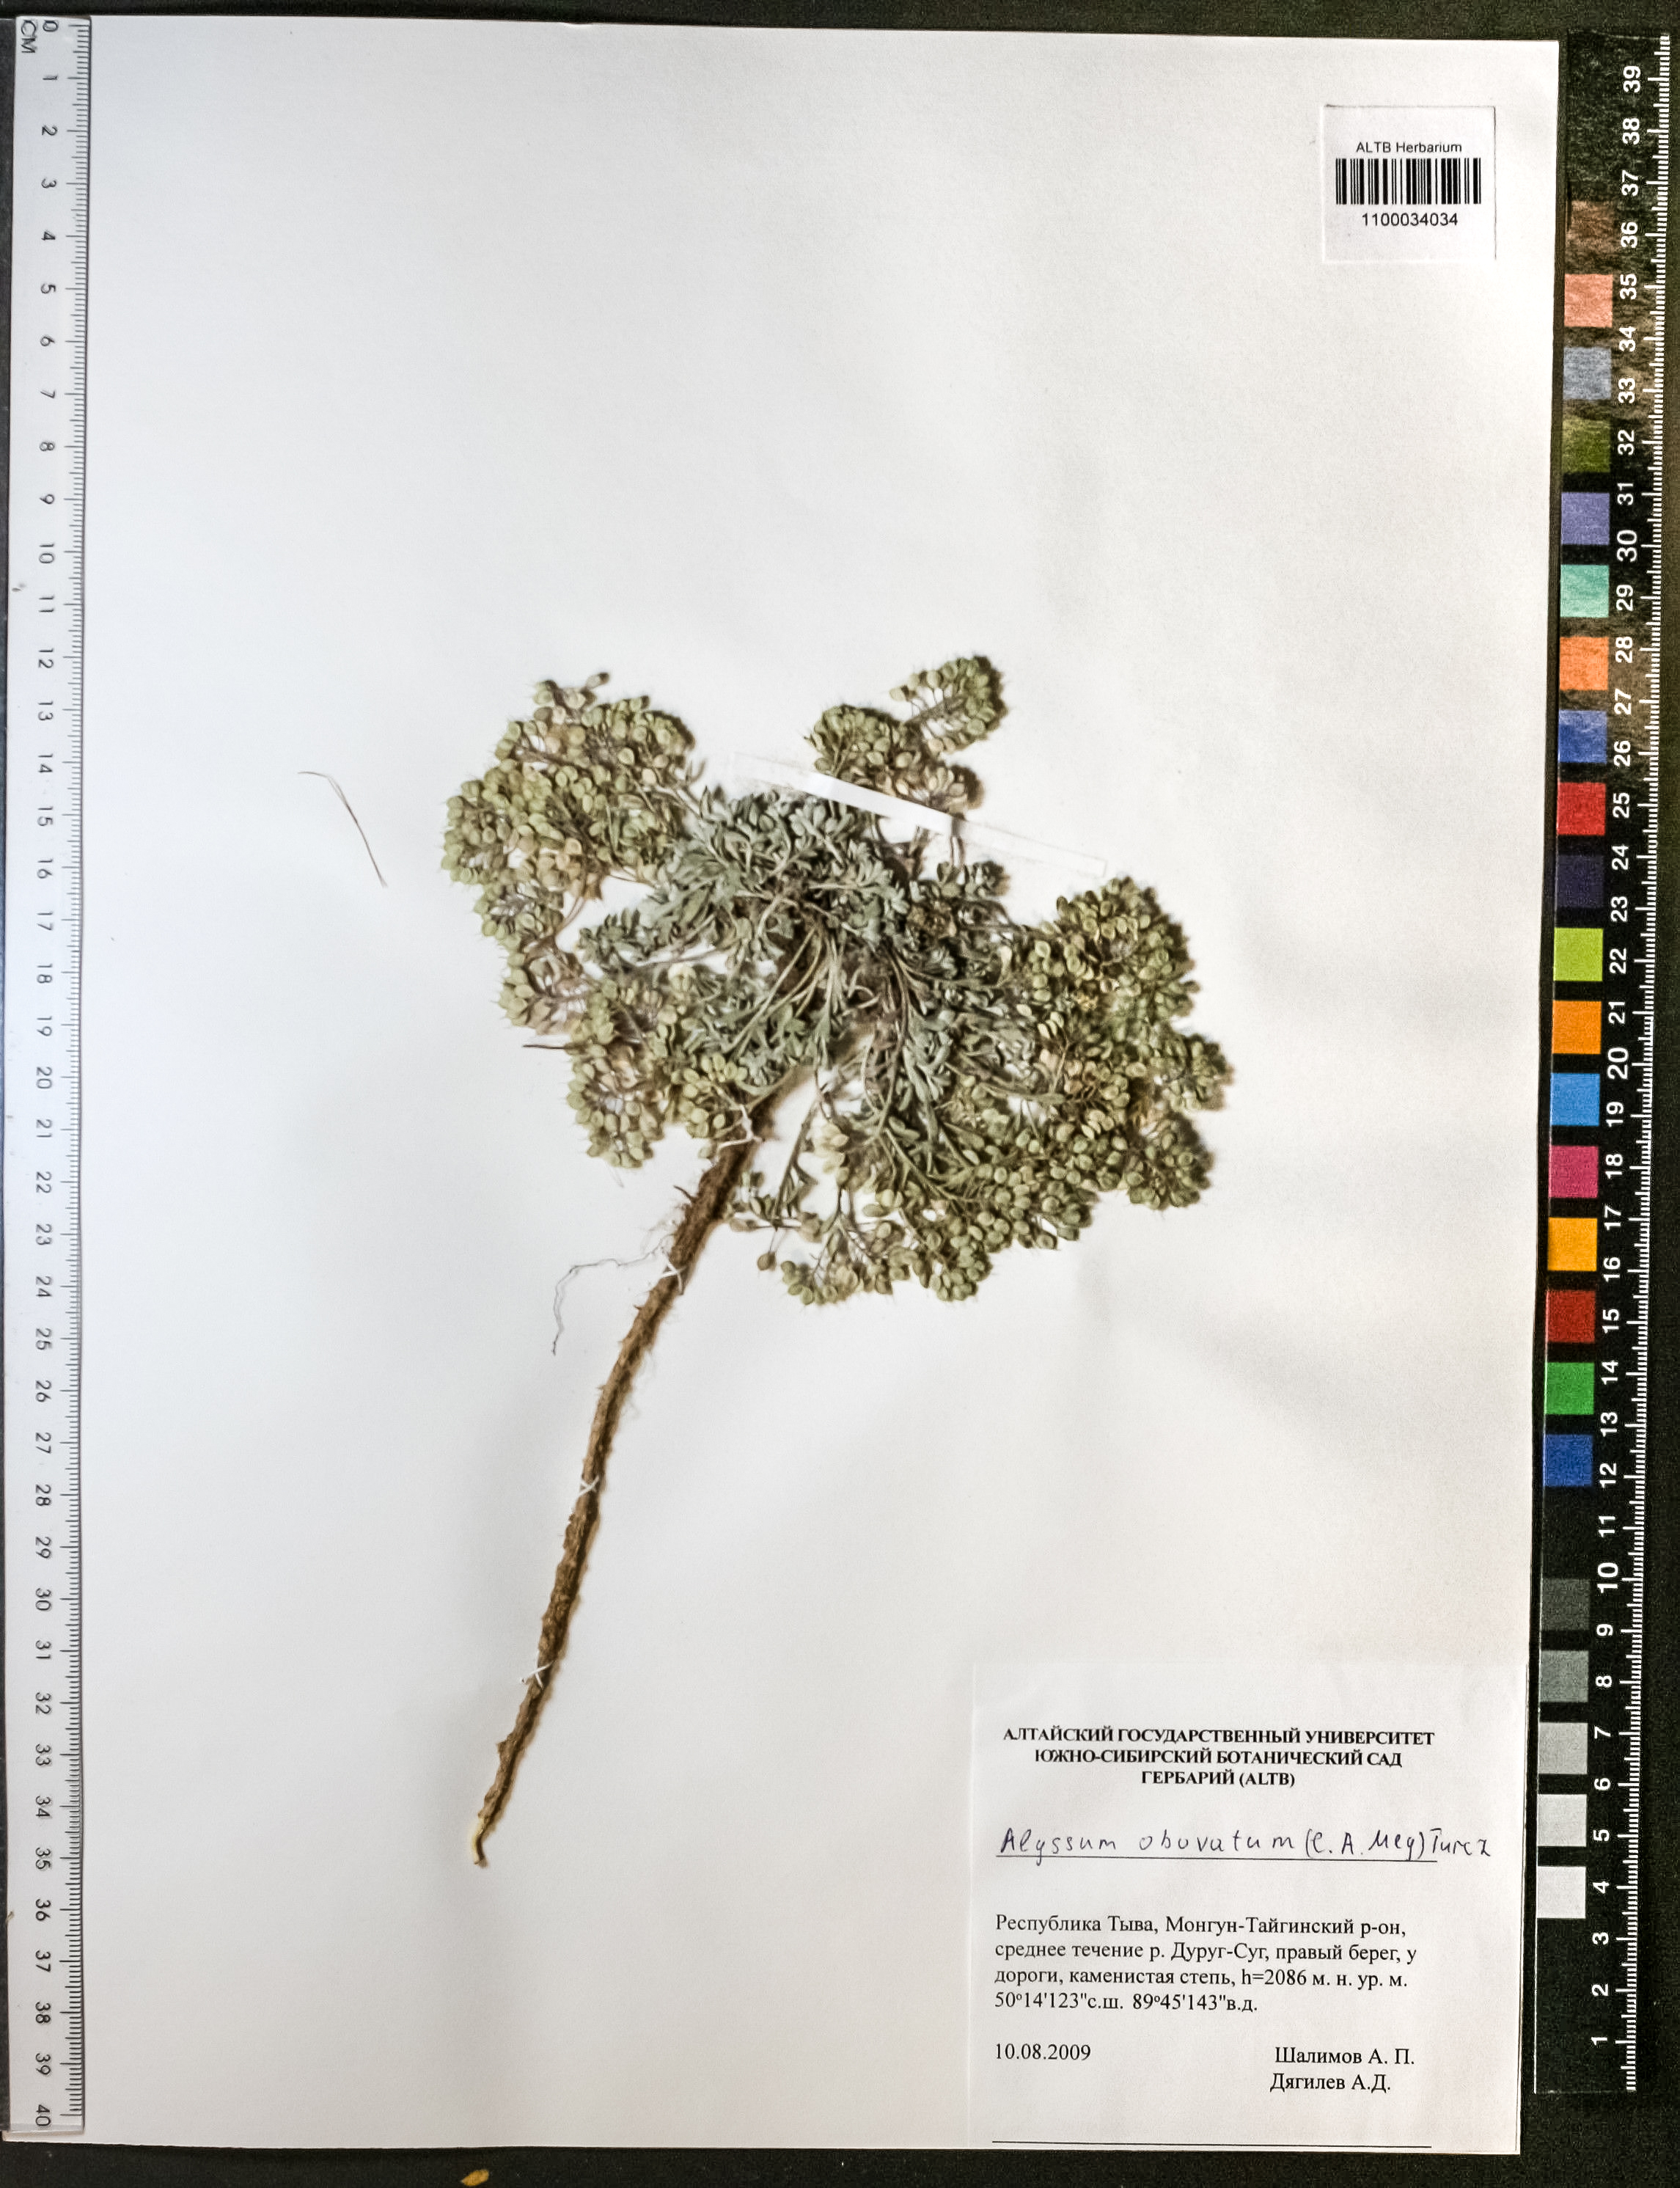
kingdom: Plantae
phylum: Tracheophyta
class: Magnoliopsida
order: Brassicales
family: Brassicaceae
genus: Odontarrhena
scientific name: Odontarrhena obovata
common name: American alyssum
